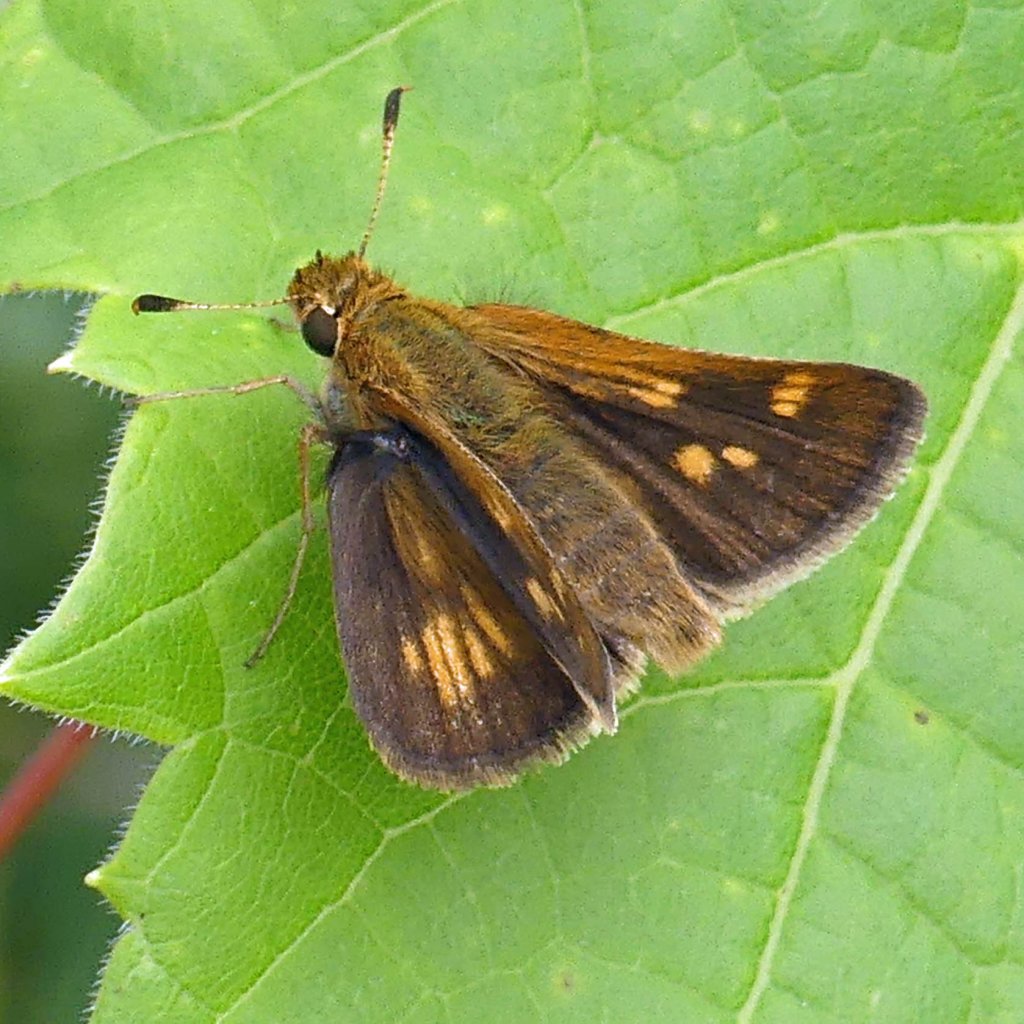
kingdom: Animalia
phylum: Arthropoda
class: Insecta
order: Lepidoptera
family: Hesperiidae
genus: Polites
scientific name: Polites coras
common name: Peck's Skipper
